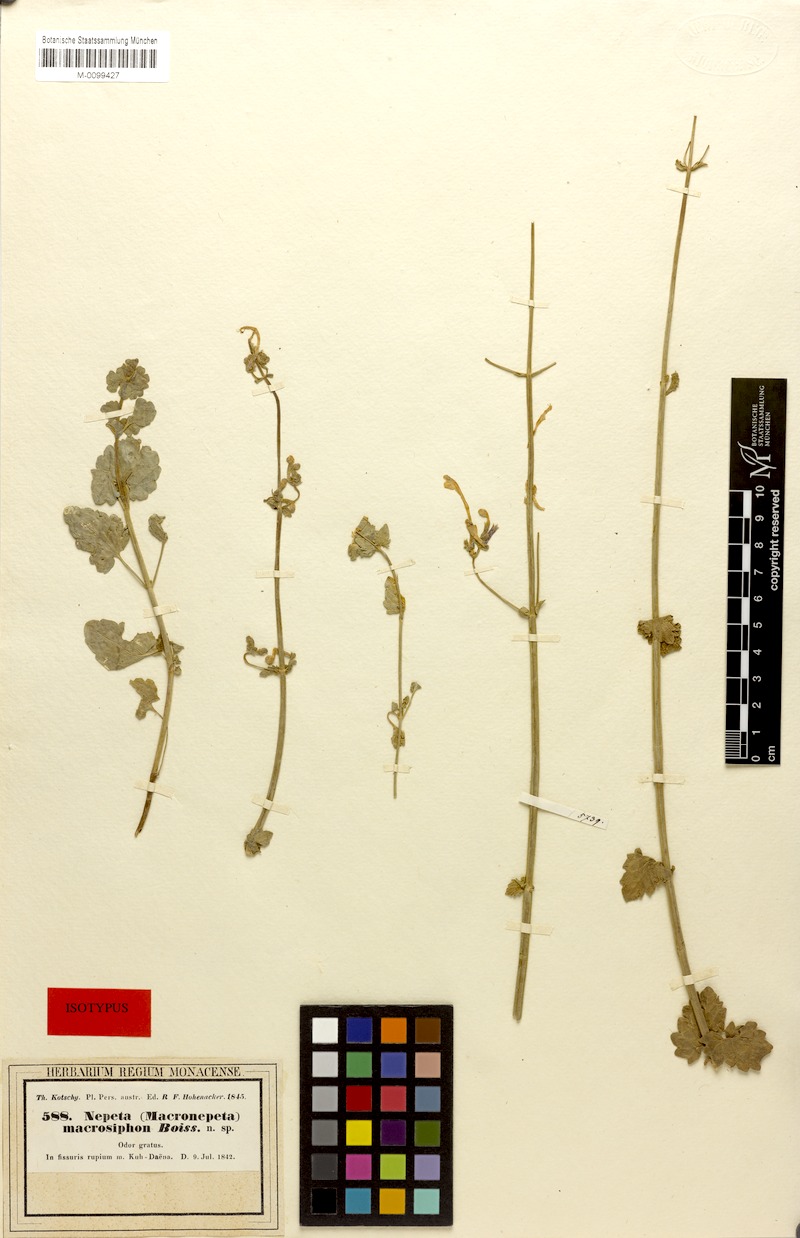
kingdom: Plantae
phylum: Tracheophyta
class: Magnoliopsida
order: Lamiales
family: Lamiaceae
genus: Nepeta
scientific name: Nepeta macrosiphon
